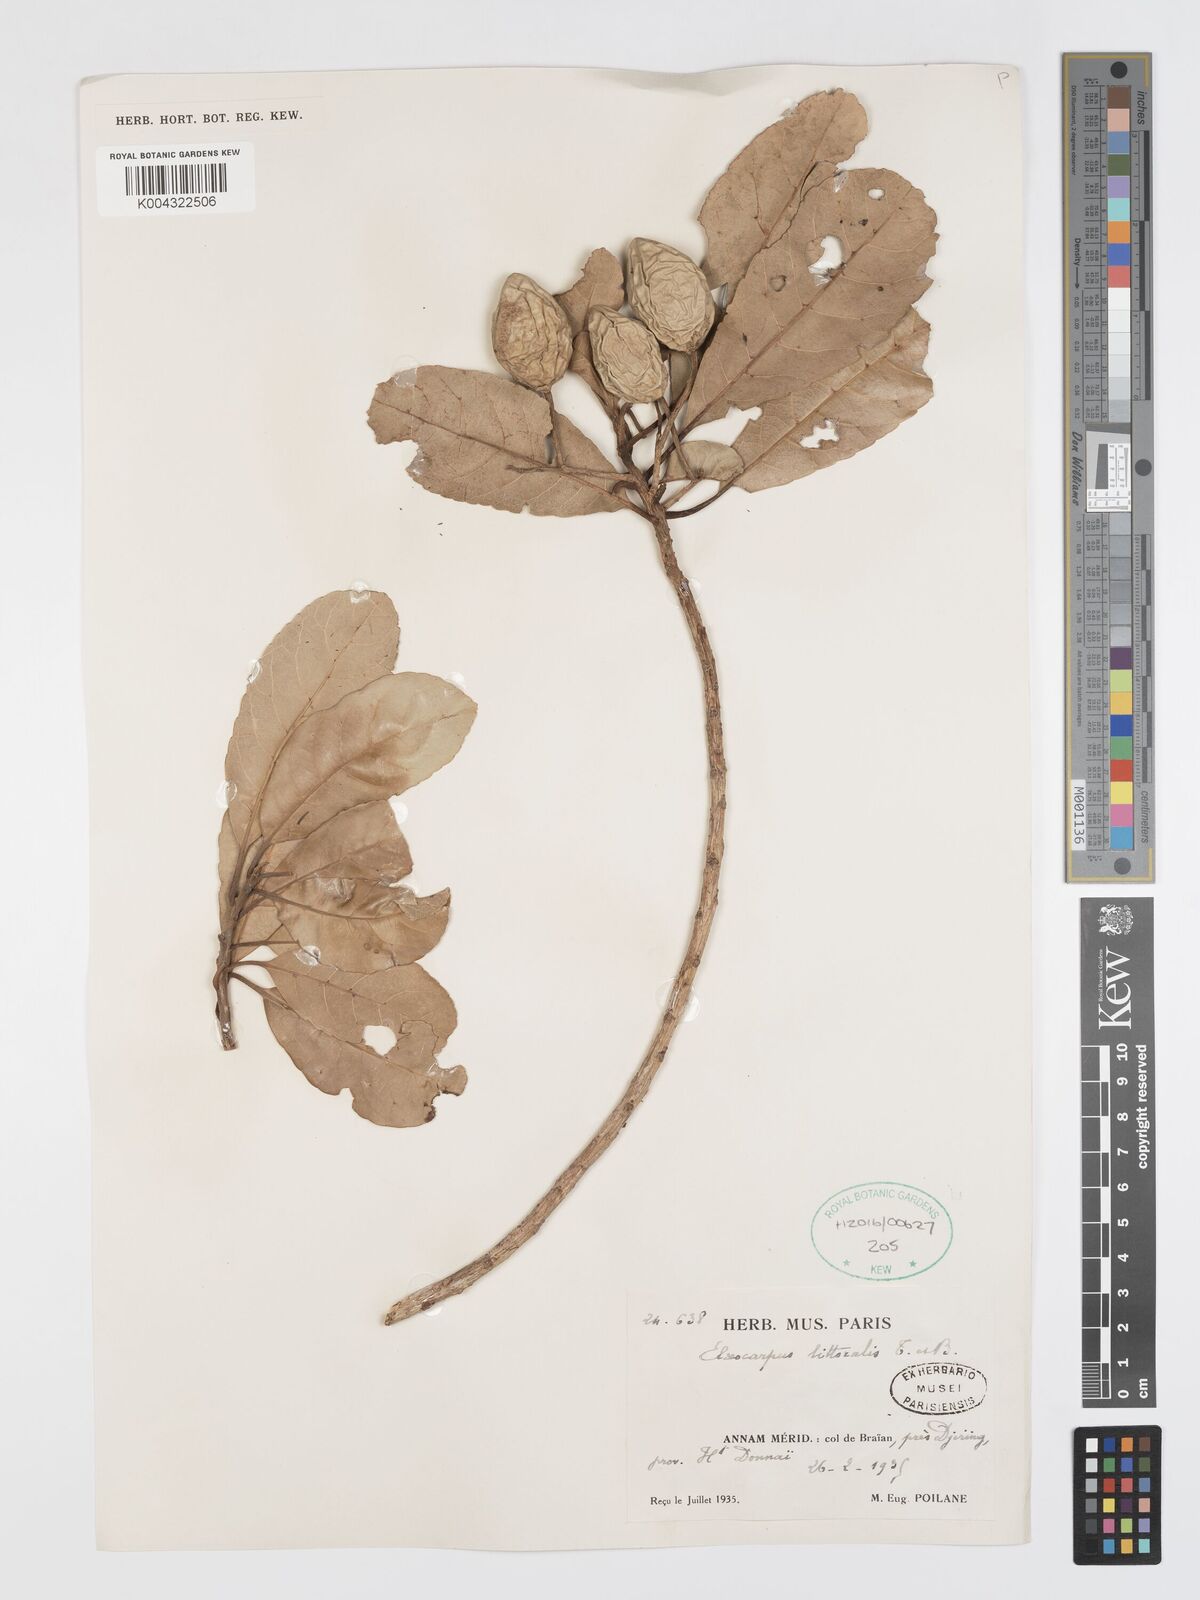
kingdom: Plantae
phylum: Tracheophyta
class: Magnoliopsida
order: Oxalidales
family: Elaeocarpaceae
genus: Elaeocarpus
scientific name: Elaeocarpus macrocerus
